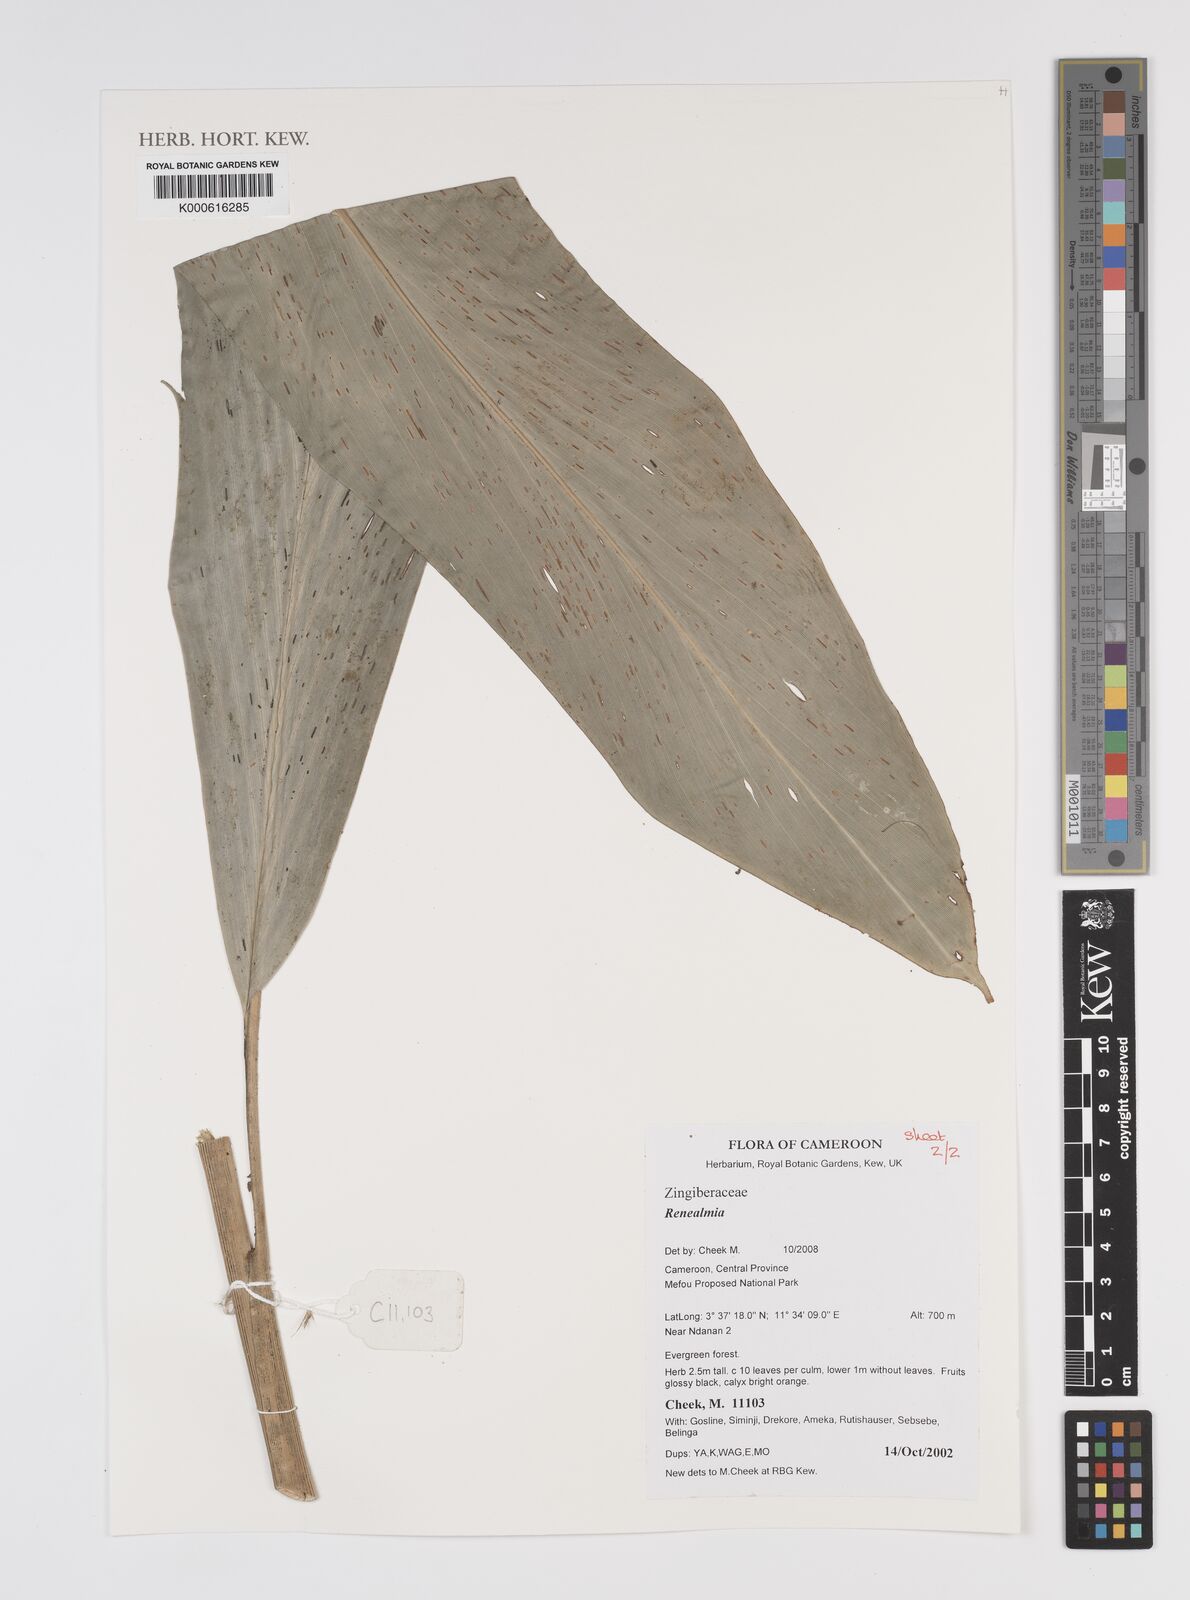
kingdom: Plantae
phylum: Tracheophyta
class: Liliopsida
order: Zingiberales
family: Zingiberaceae
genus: Renealmia
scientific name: Renealmia
